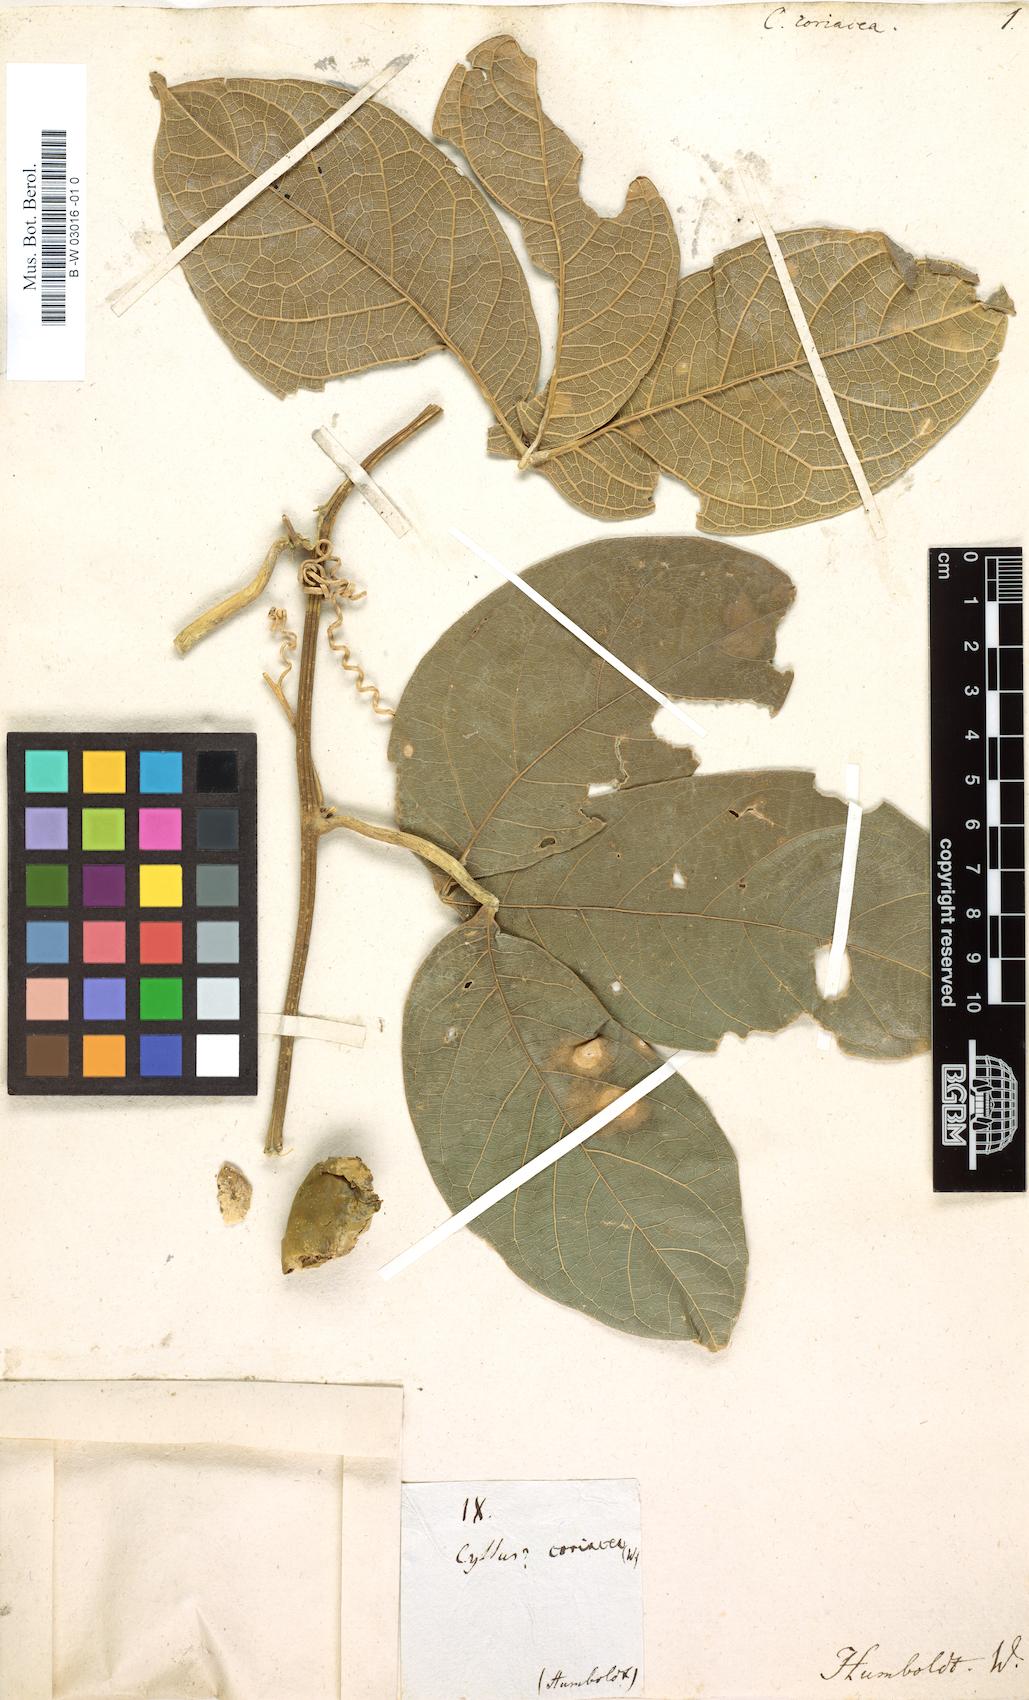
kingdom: Plantae
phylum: Tracheophyta
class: Magnoliopsida
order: Vitales
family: Vitaceae
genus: Tetrastigma
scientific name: Tetrastigma coriaceum
